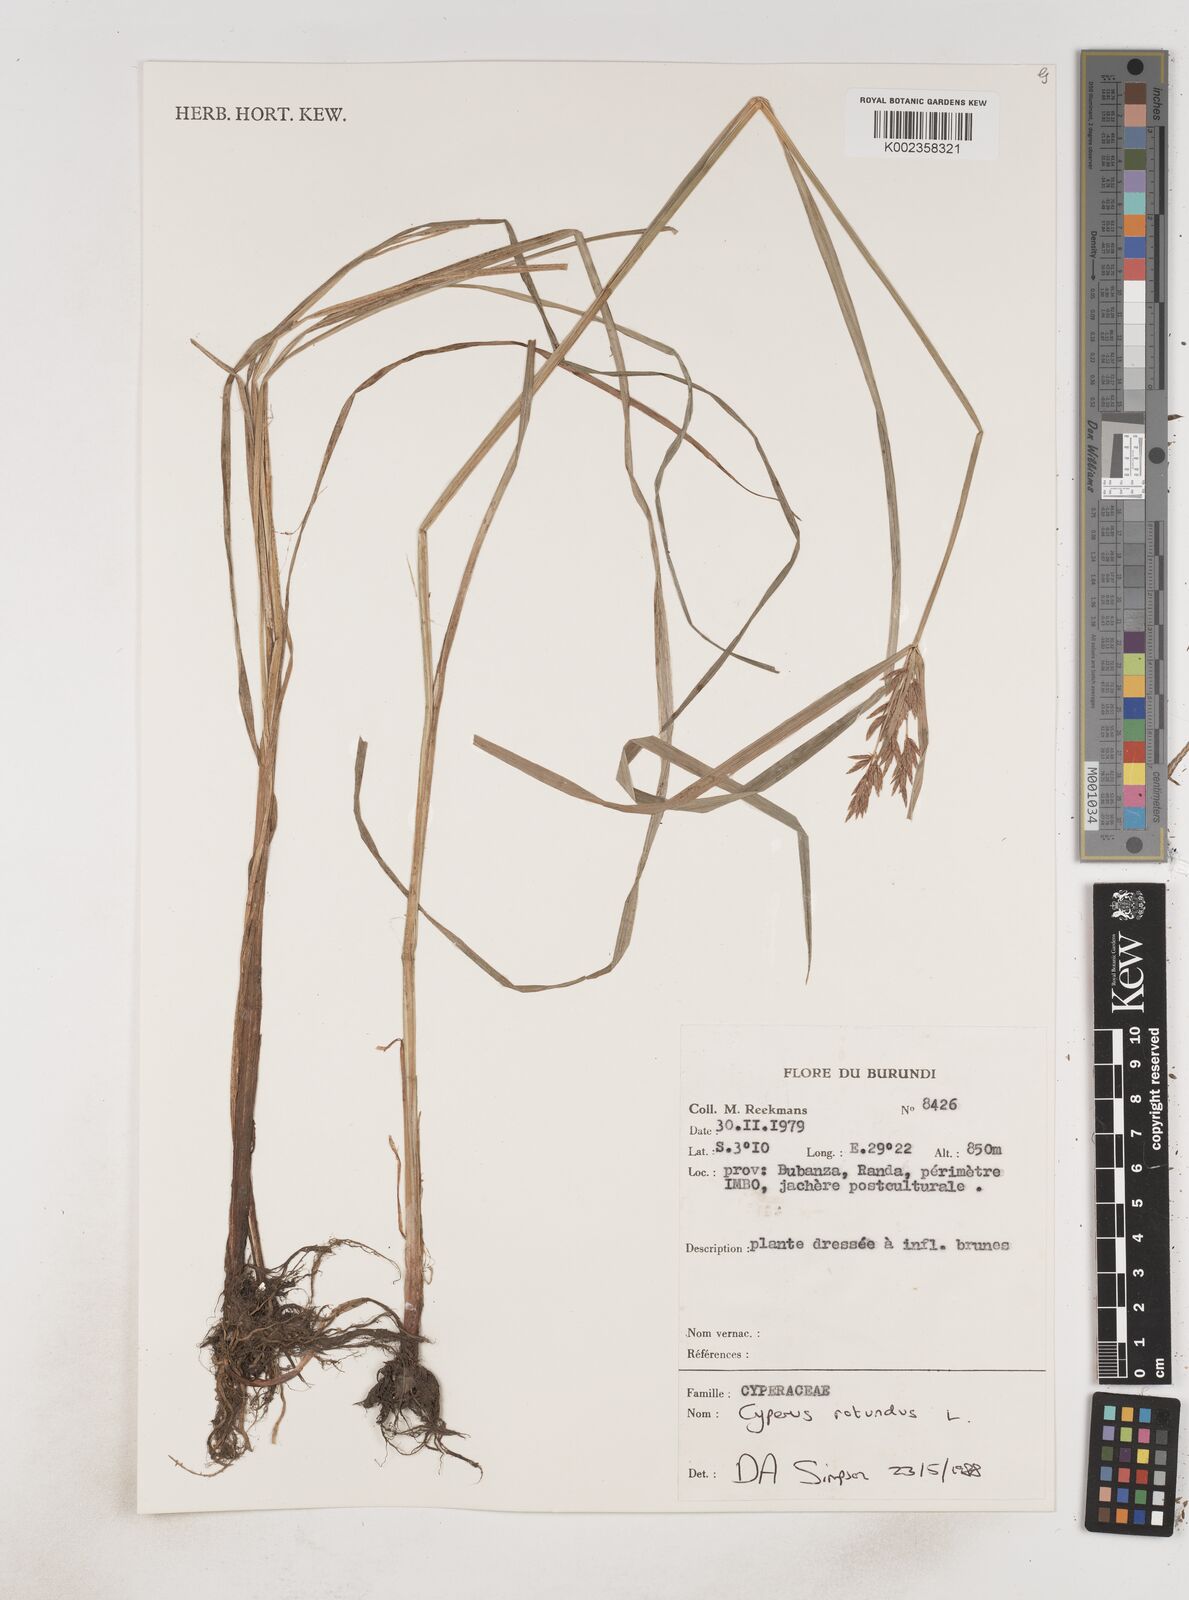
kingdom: Plantae
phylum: Tracheophyta
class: Liliopsida
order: Poales
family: Cyperaceae
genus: Cyperus
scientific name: Cyperus rotundus
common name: Nutgrass
